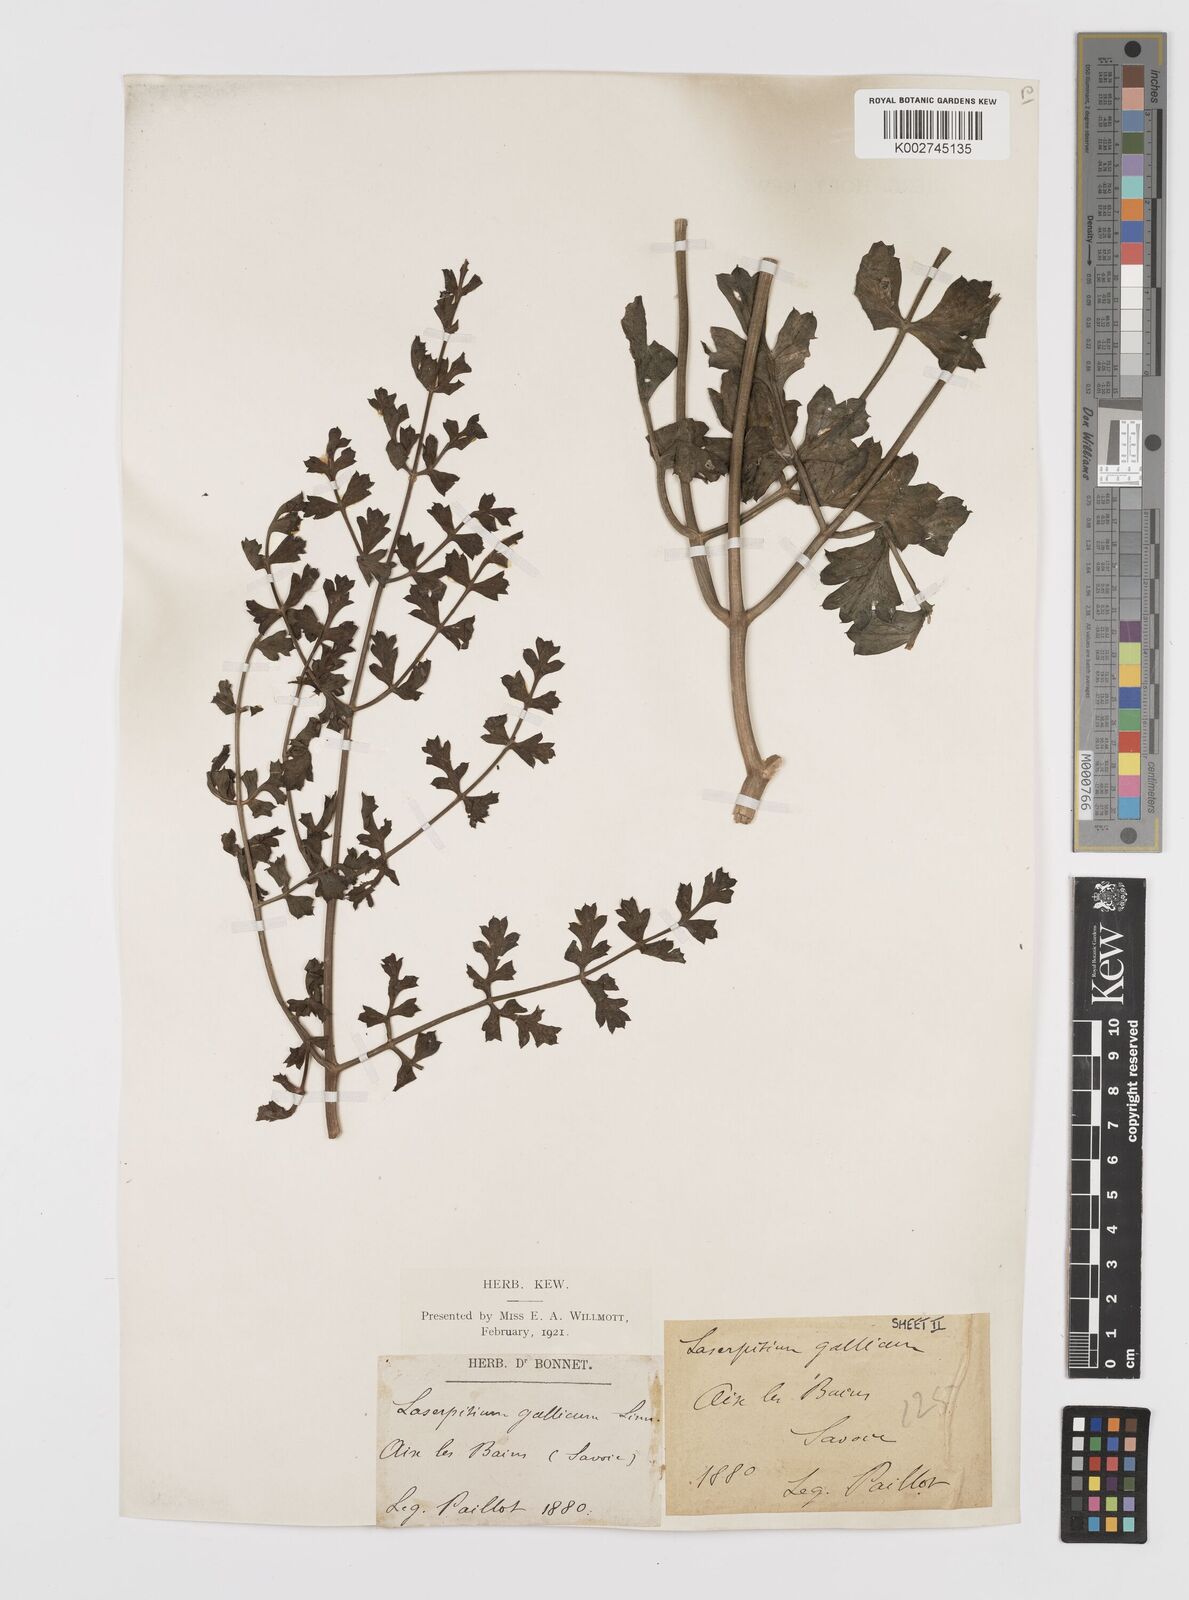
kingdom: Plantae
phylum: Tracheophyta
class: Magnoliopsida
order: Apiales
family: Apiaceae
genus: Laserpitium
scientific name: Laserpitium gallicum
